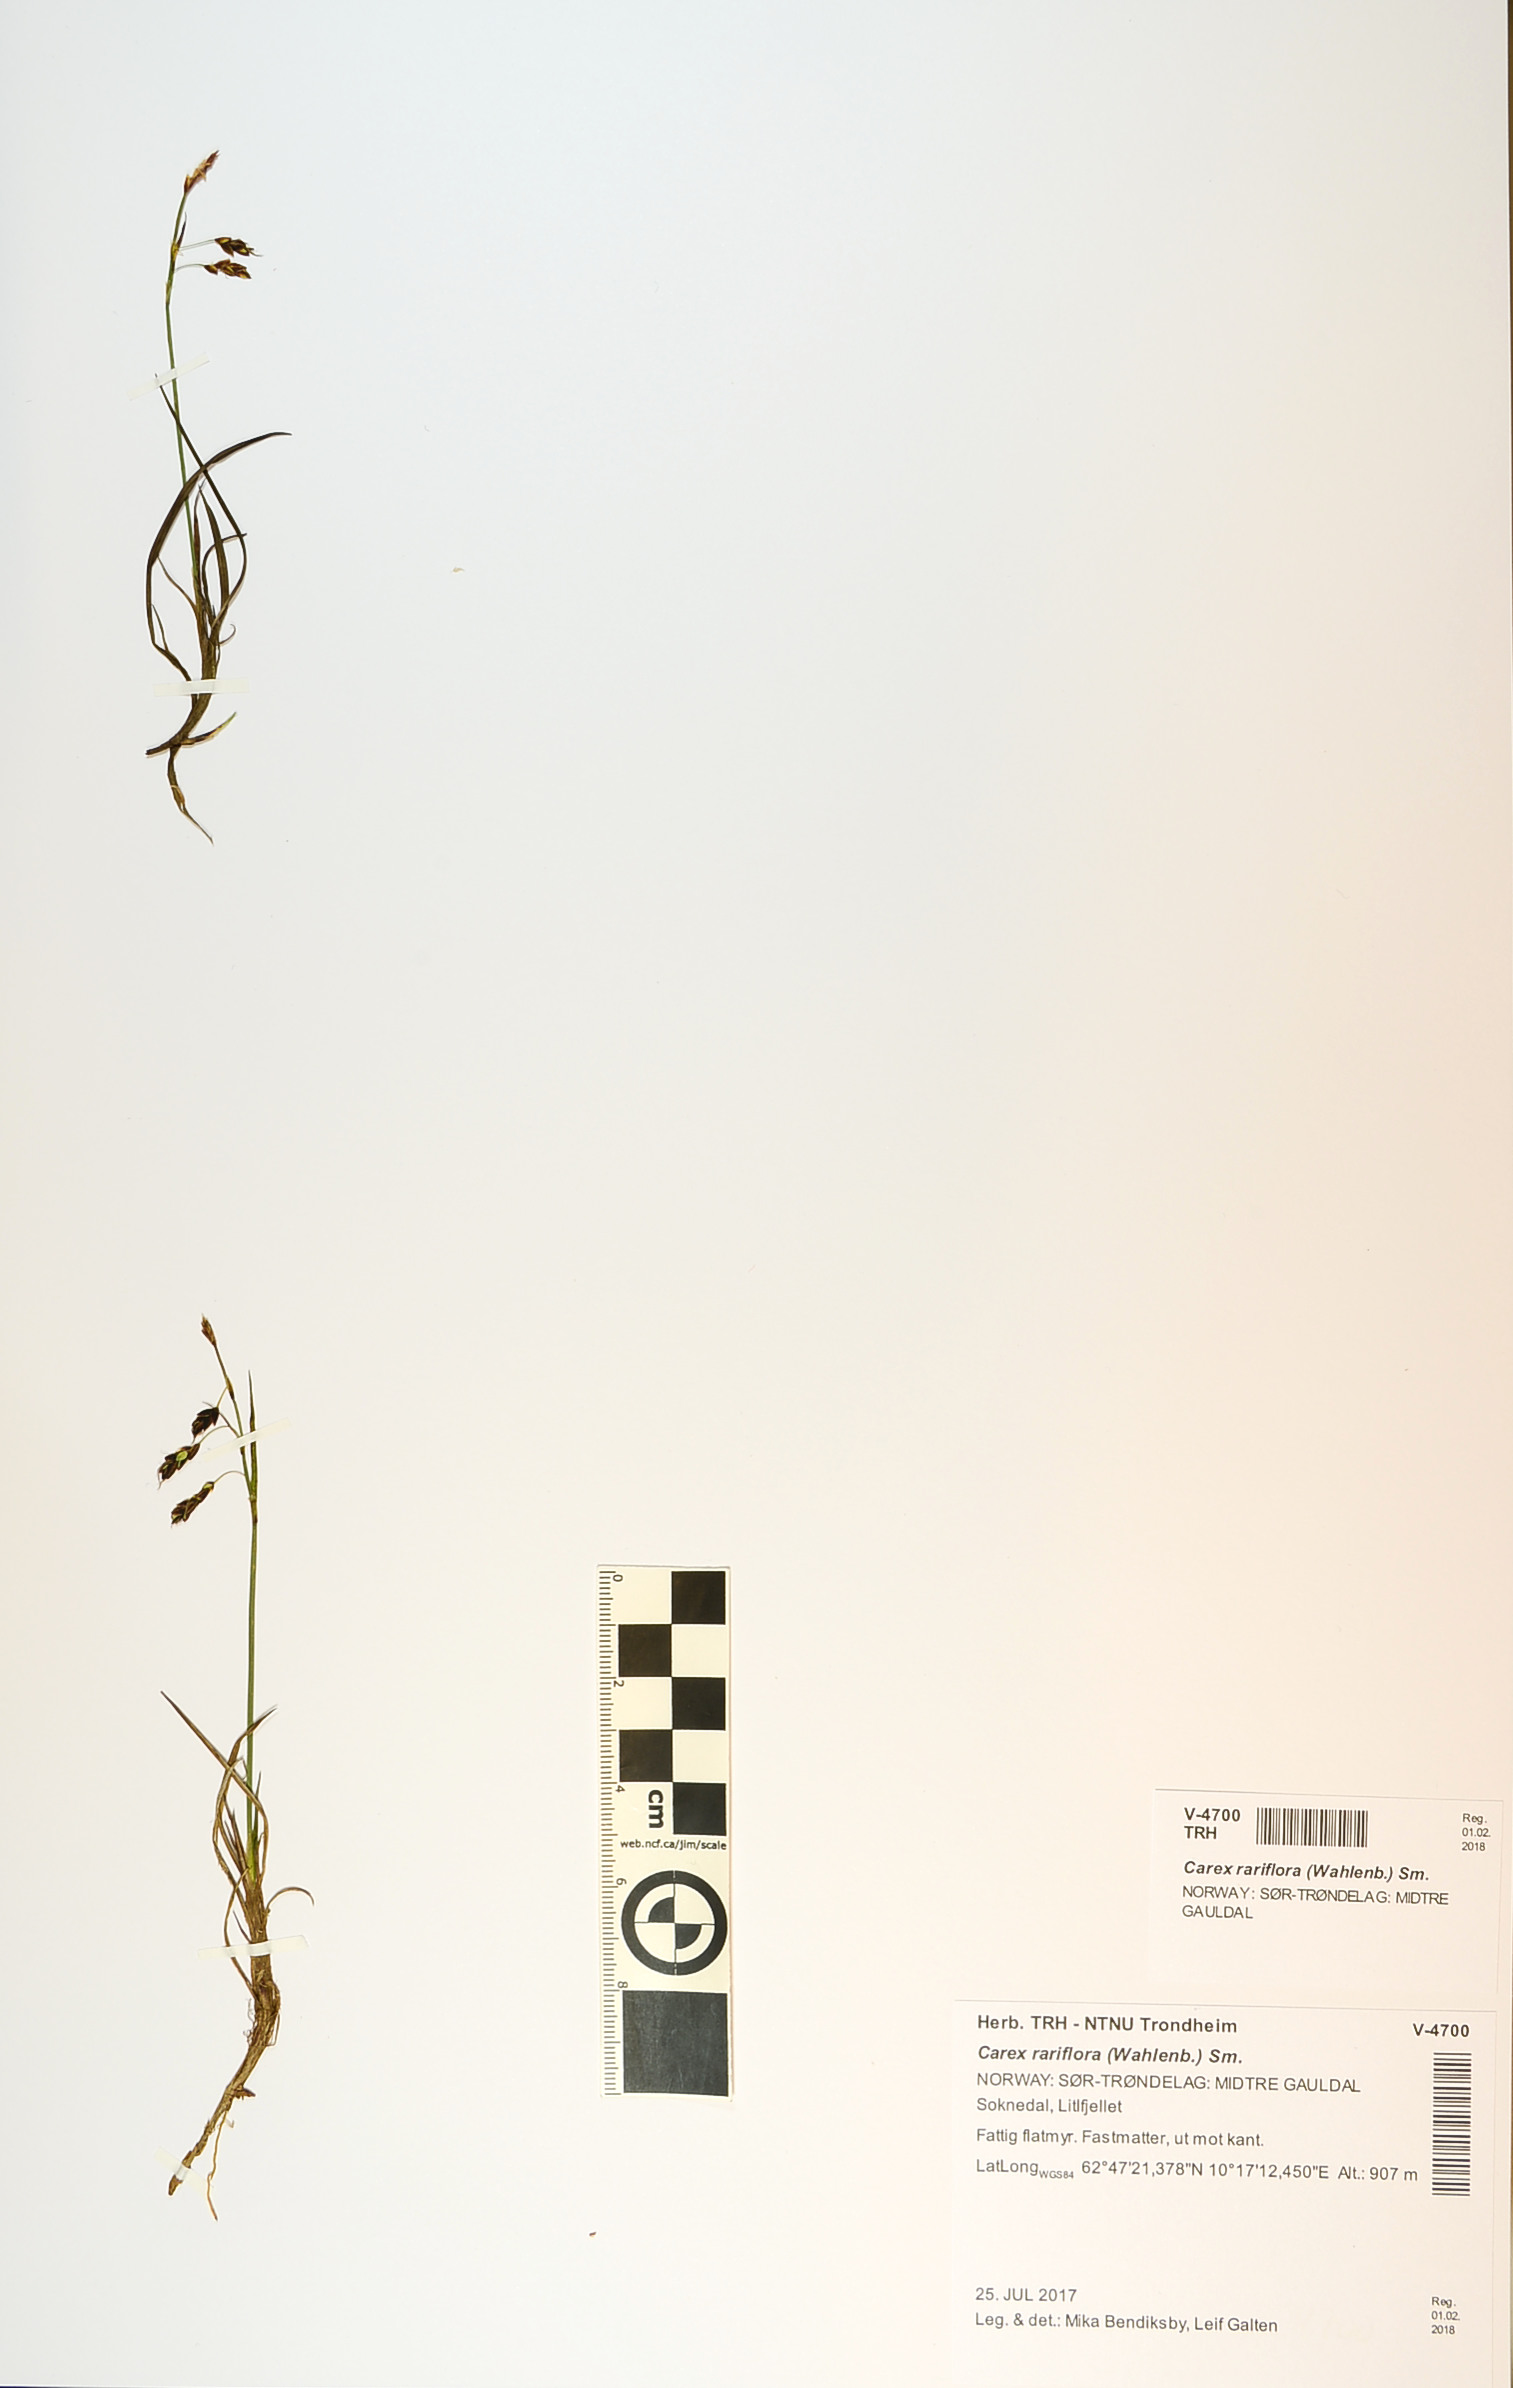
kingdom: Plantae
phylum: Tracheophyta
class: Liliopsida
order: Poales
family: Cyperaceae
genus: Carex
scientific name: Carex rariflora
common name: Loose-flowered alpine sedge
